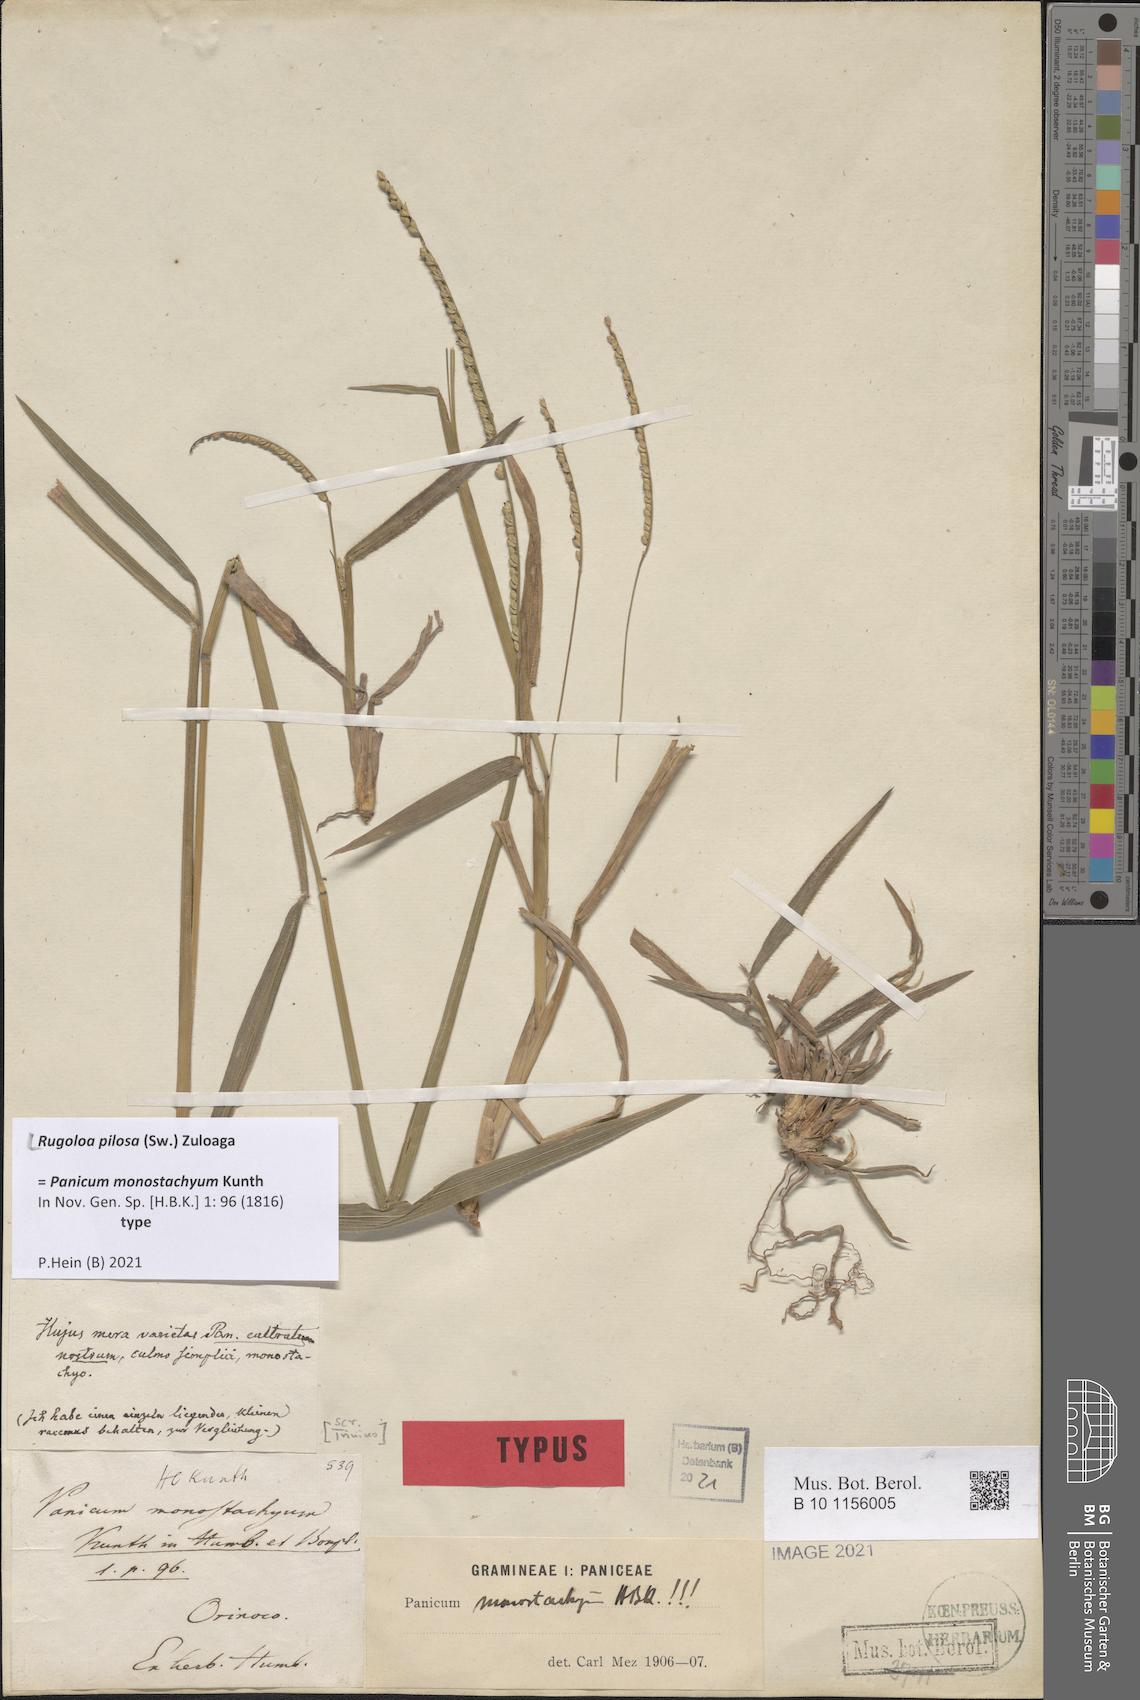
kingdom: Plantae
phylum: Tracheophyta
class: Liliopsida
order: Poales
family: Poaceae
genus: Rugoloa
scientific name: Rugoloa pilosa
